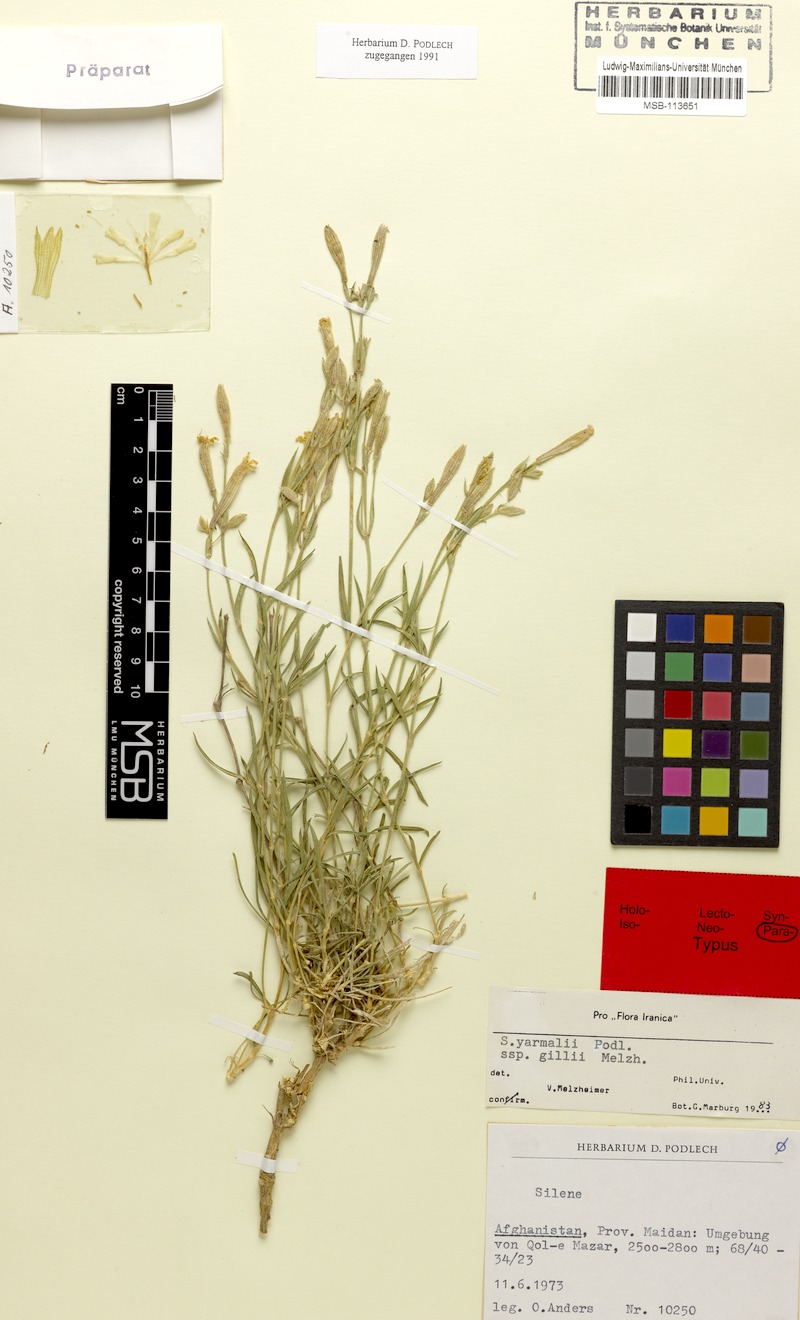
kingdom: Plantae
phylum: Tracheophyta
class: Magnoliopsida
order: Caryophyllales
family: Caryophyllaceae
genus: Silene
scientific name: Silene yarmalii
